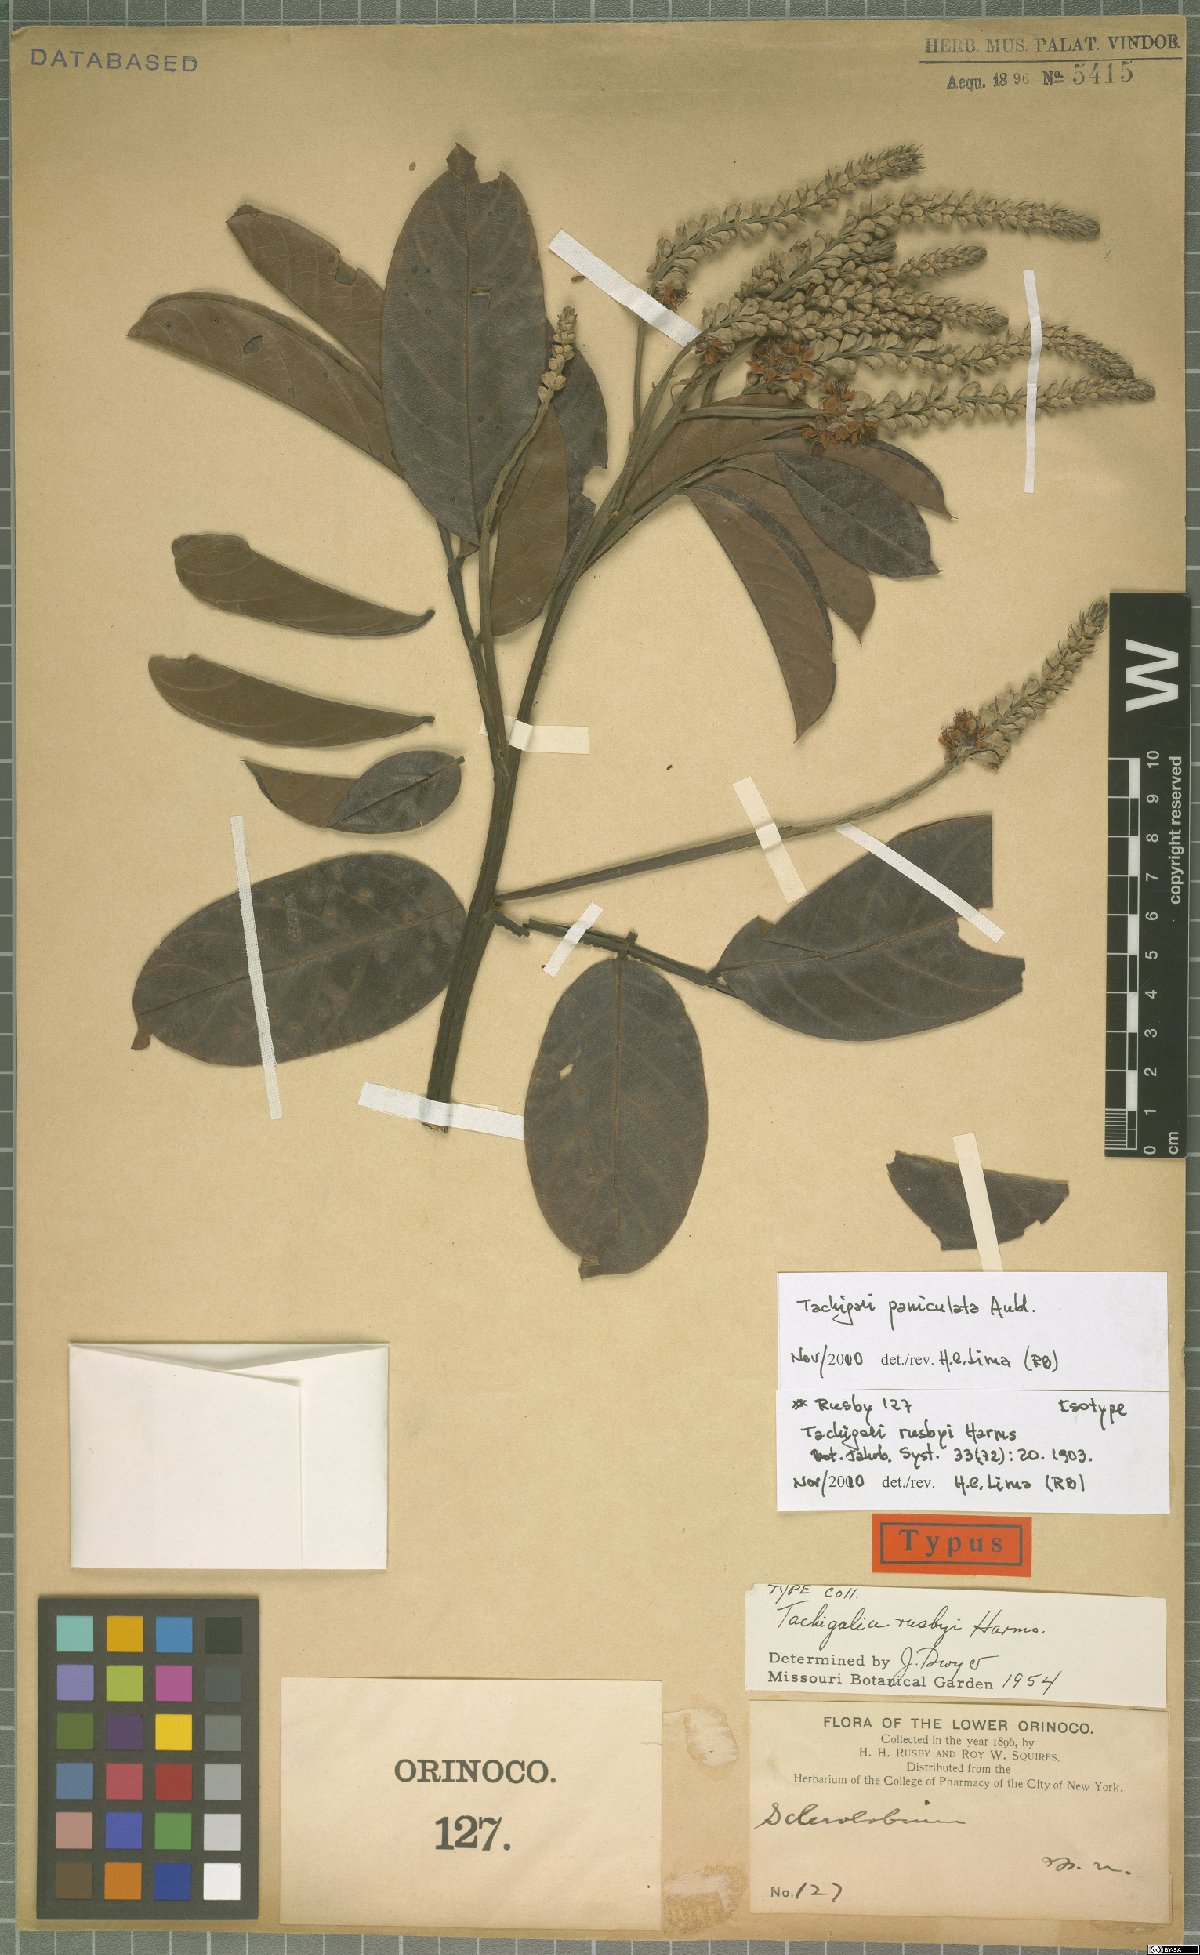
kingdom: Plantae
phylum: Tracheophyta
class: Magnoliopsida
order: Fabales
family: Fabaceae
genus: Tachigali
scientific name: Tachigali paniculata
